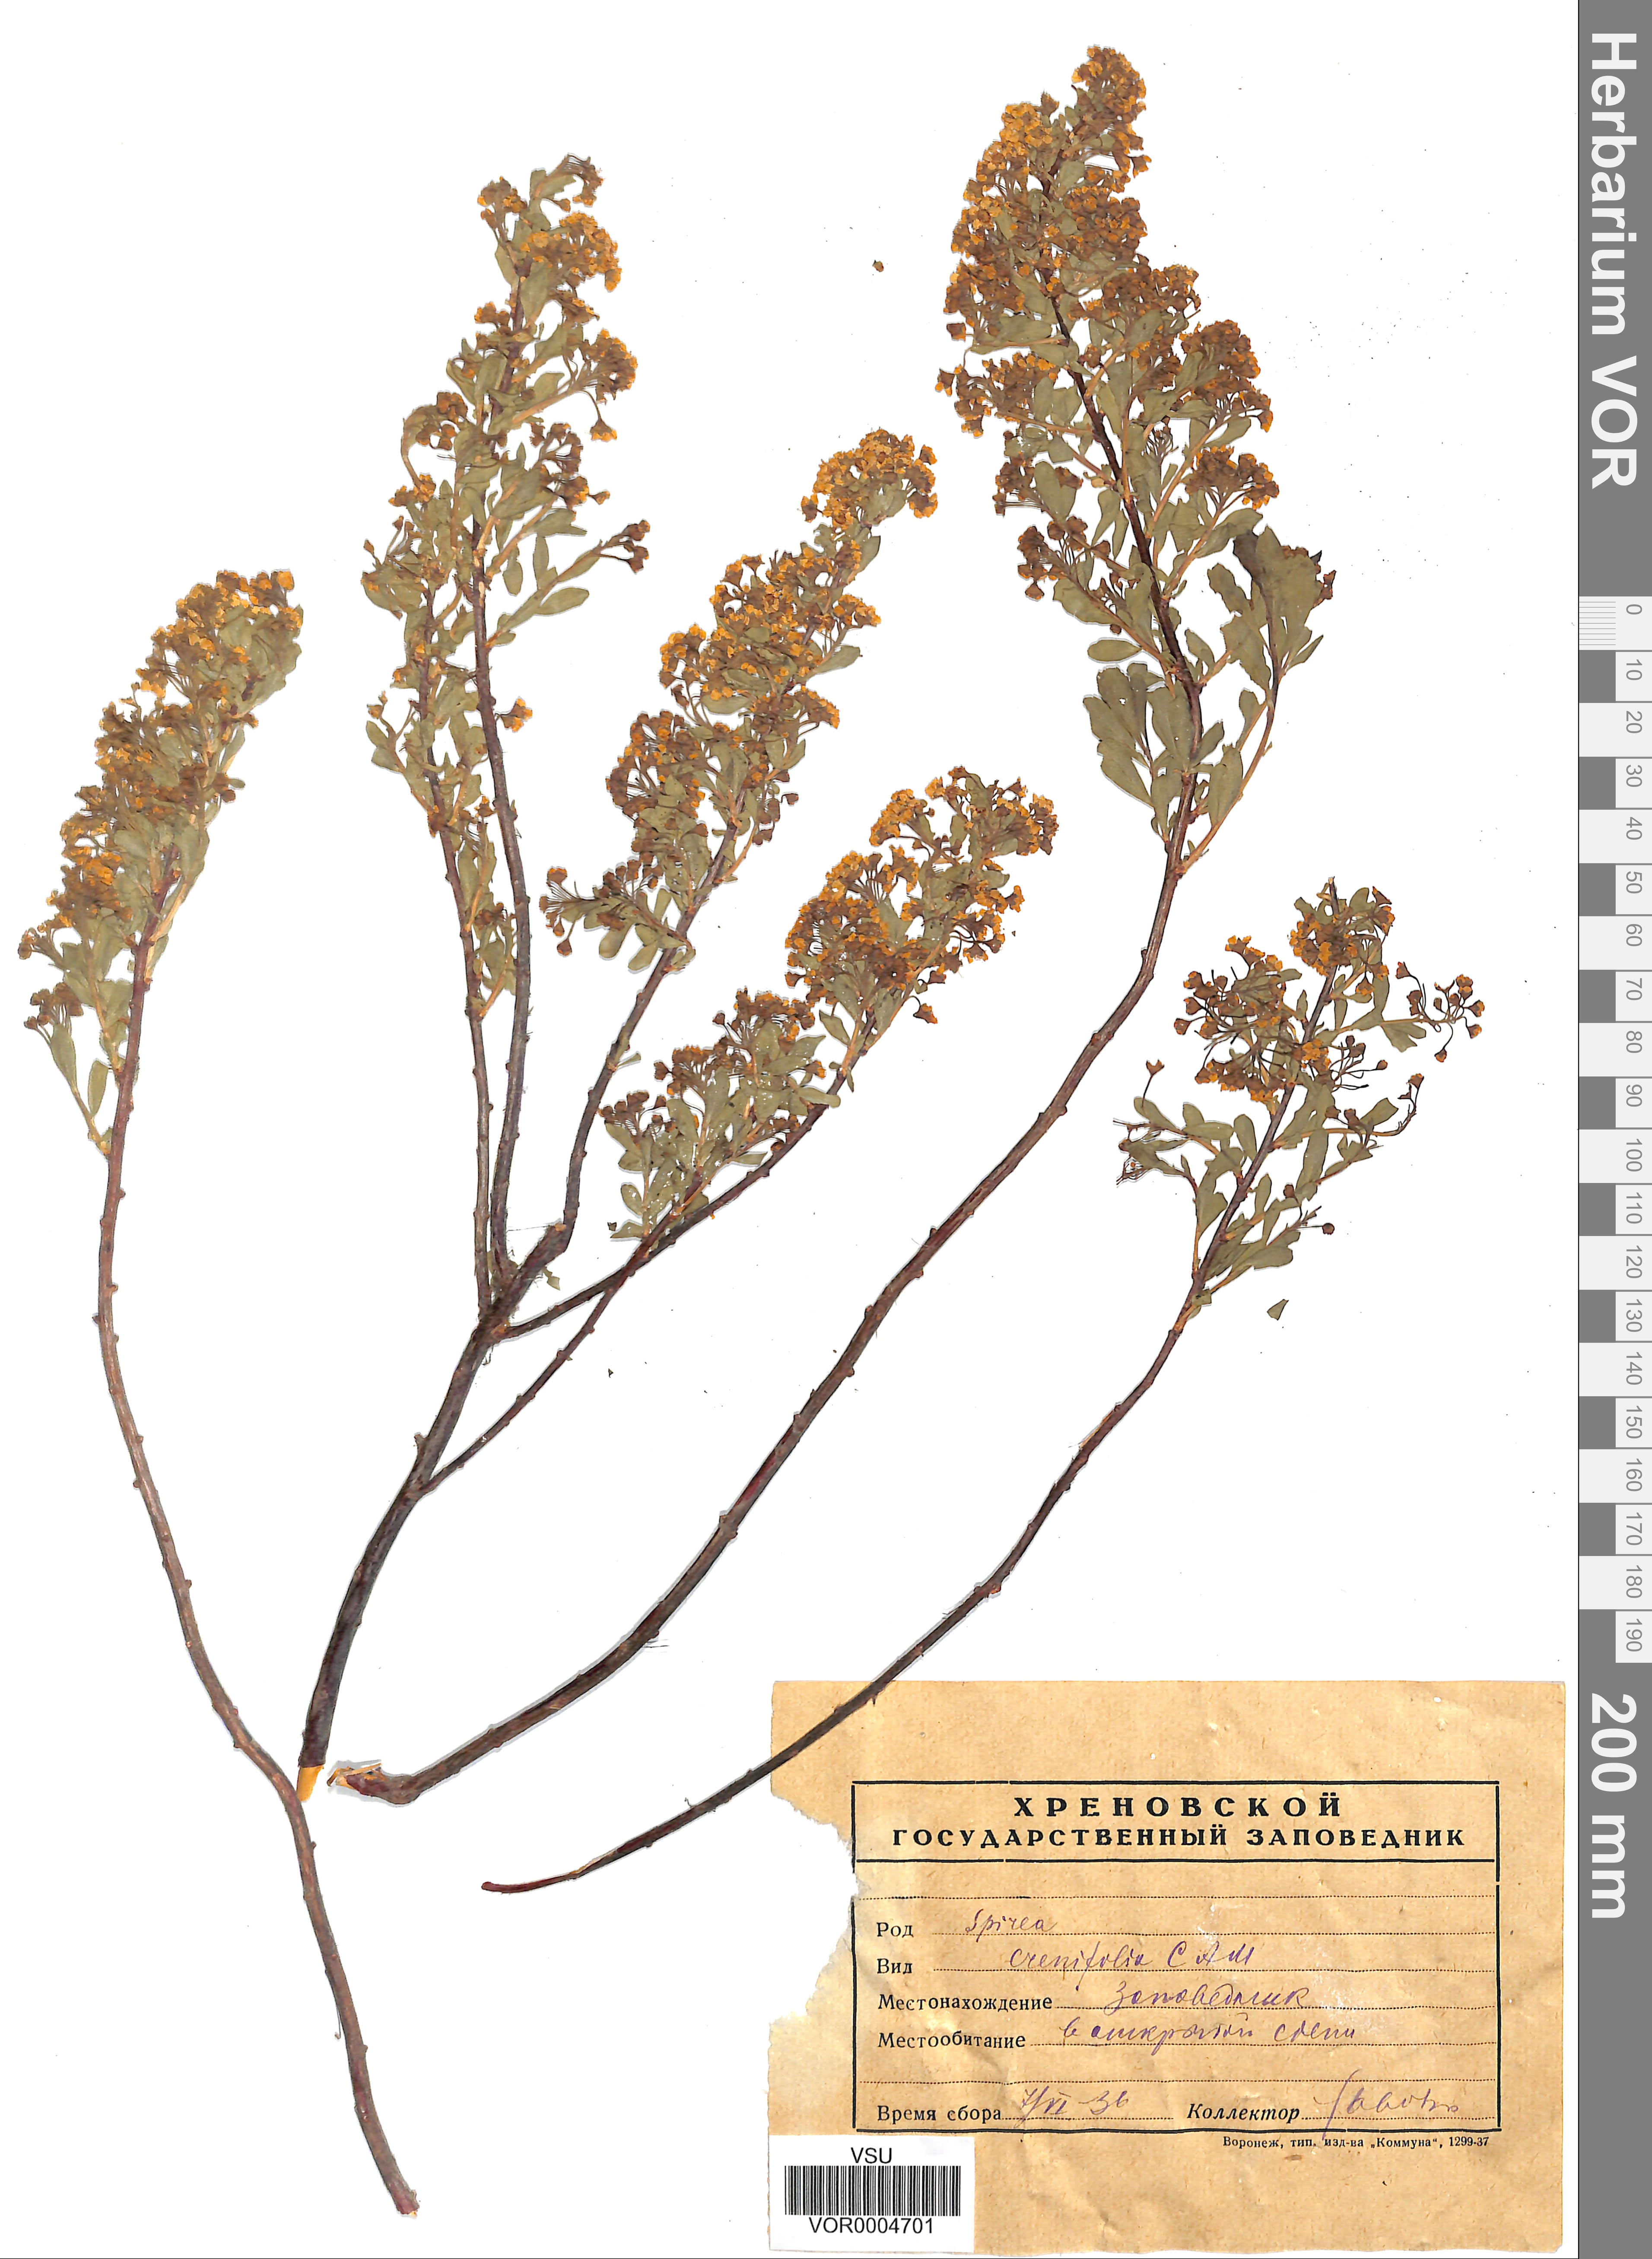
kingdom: Plantae
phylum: Tracheophyta
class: Magnoliopsida
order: Rosales
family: Rosaceae
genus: Spiraea
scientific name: Spiraea crenata
